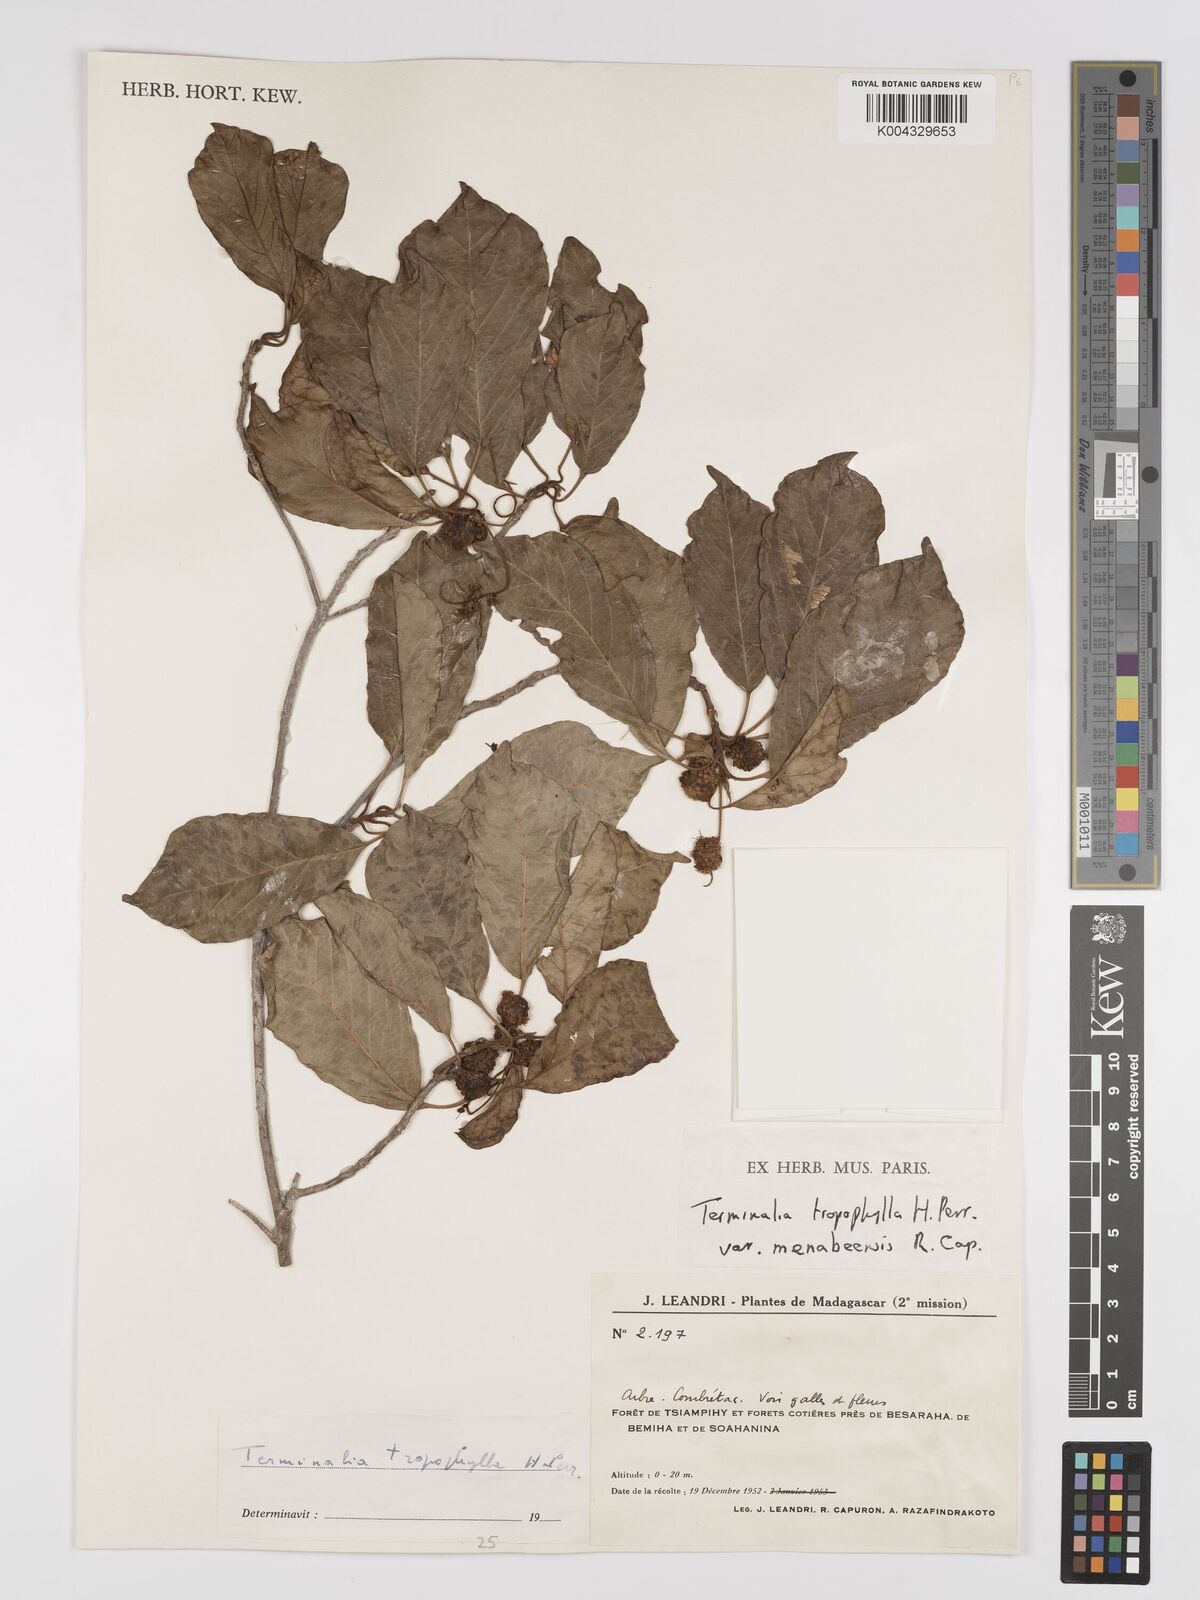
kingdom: Plantae
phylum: Tracheophyta
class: Magnoliopsida
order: Myrtales
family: Combretaceae
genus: Terminalia
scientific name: Terminalia tropophylla
